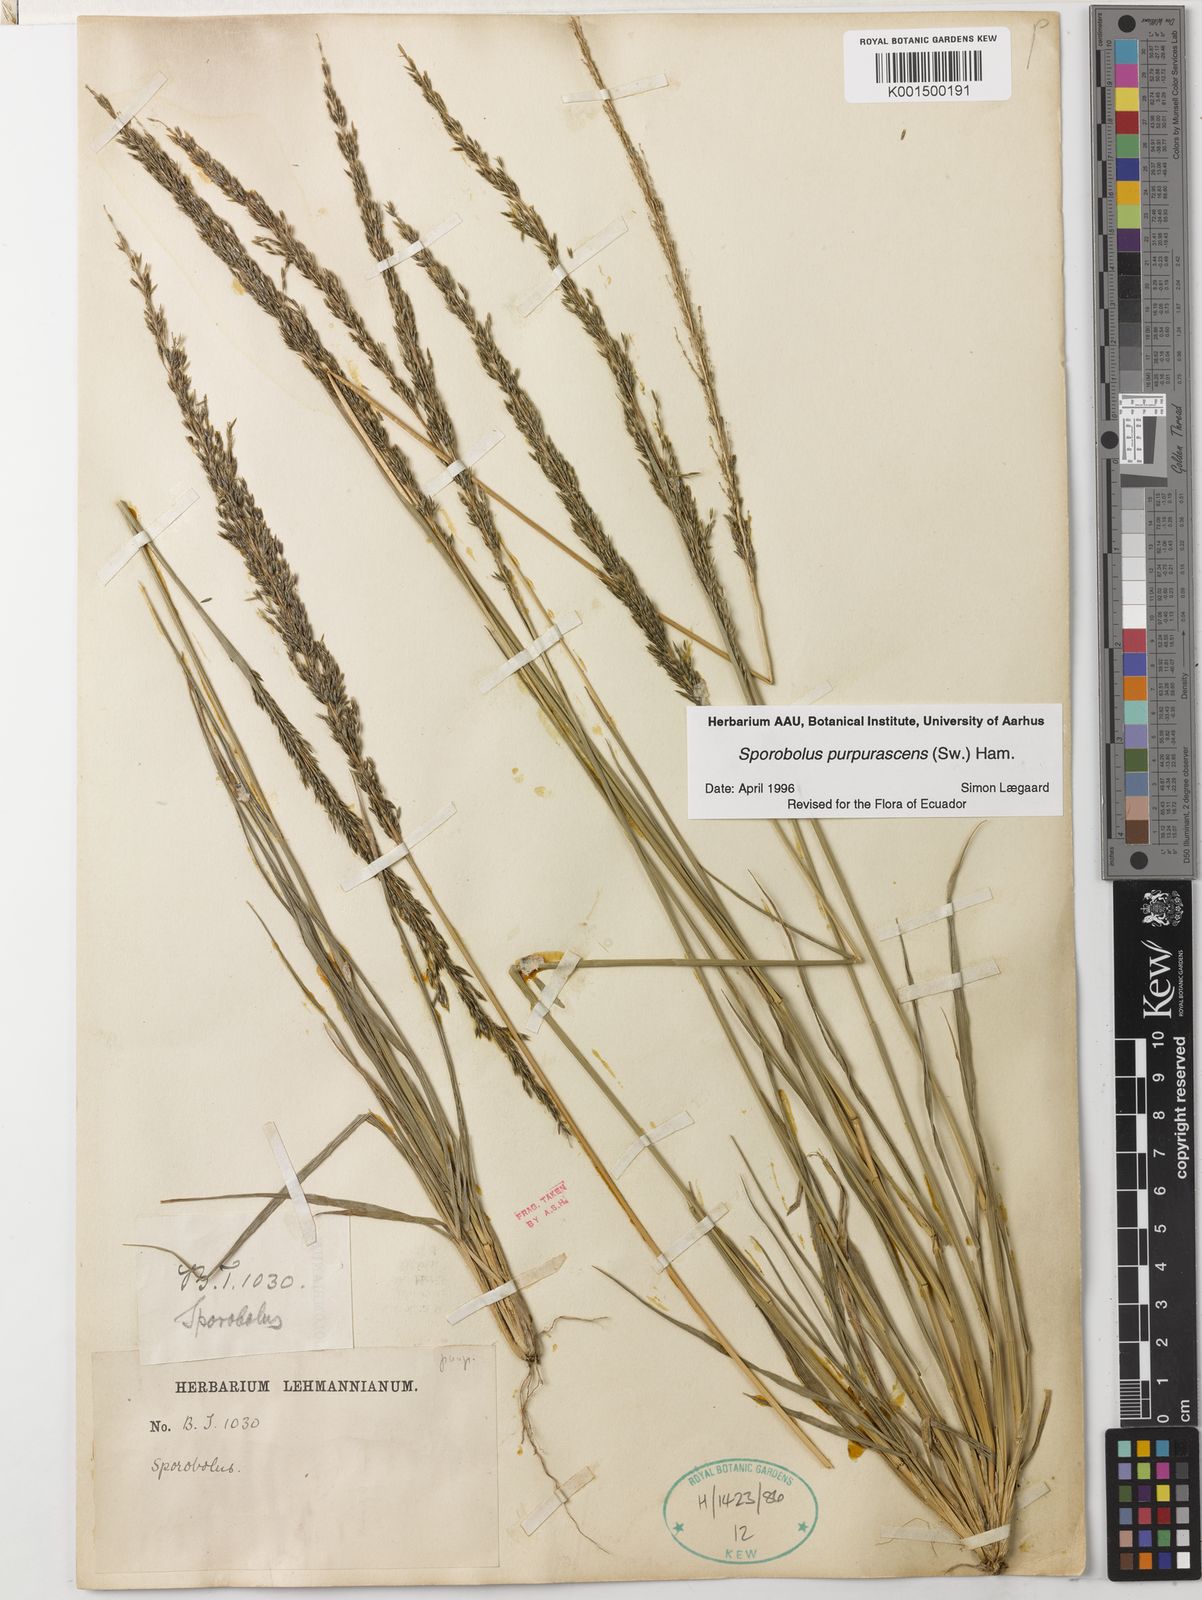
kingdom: Plantae
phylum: Tracheophyta
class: Liliopsida
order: Poales
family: Poaceae
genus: Sporobolus
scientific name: Sporobolus purpurascens
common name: Purple dropseed
